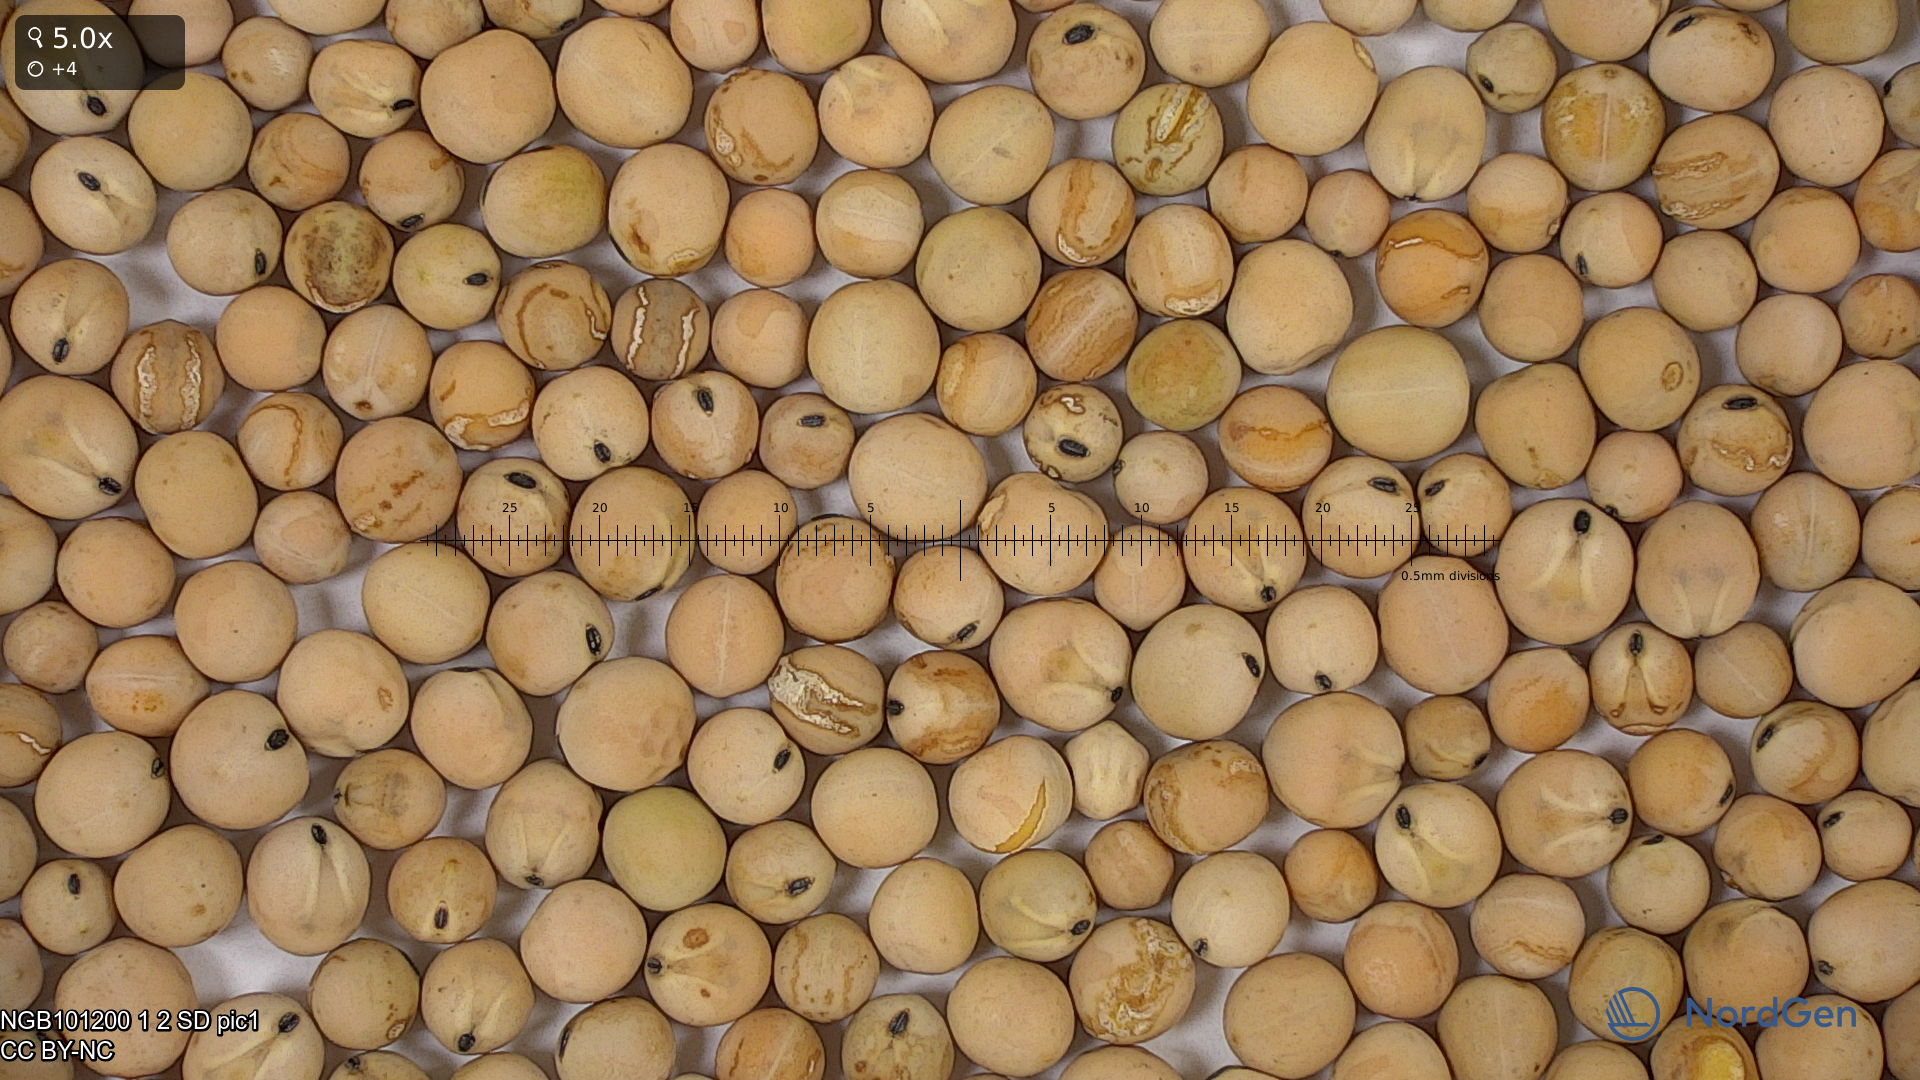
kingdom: Plantae
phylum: Tracheophyta
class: Magnoliopsida
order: Fabales
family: Fabaceae
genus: Lathyrus
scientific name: Lathyrus oleraceus
